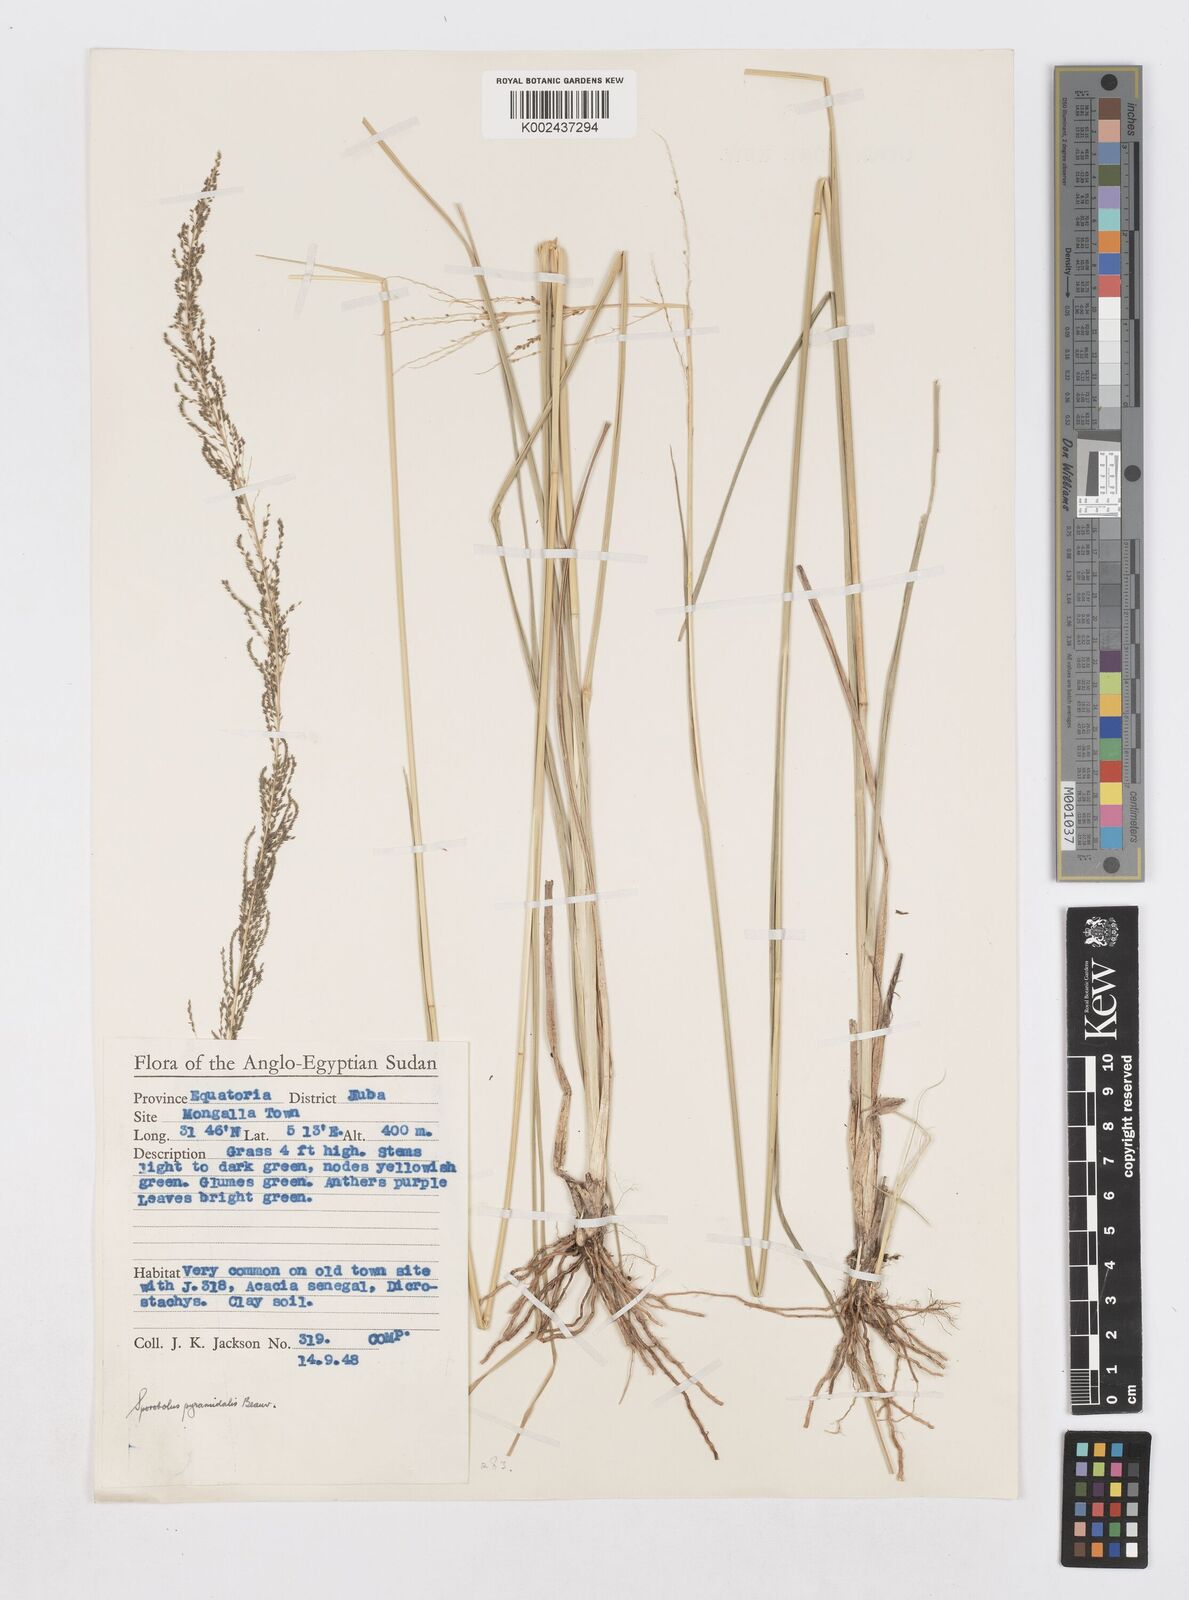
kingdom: Plantae
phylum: Tracheophyta
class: Liliopsida
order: Poales
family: Poaceae
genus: Sporobolus
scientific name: Sporobolus pyramidalis
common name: West indian dropseed
